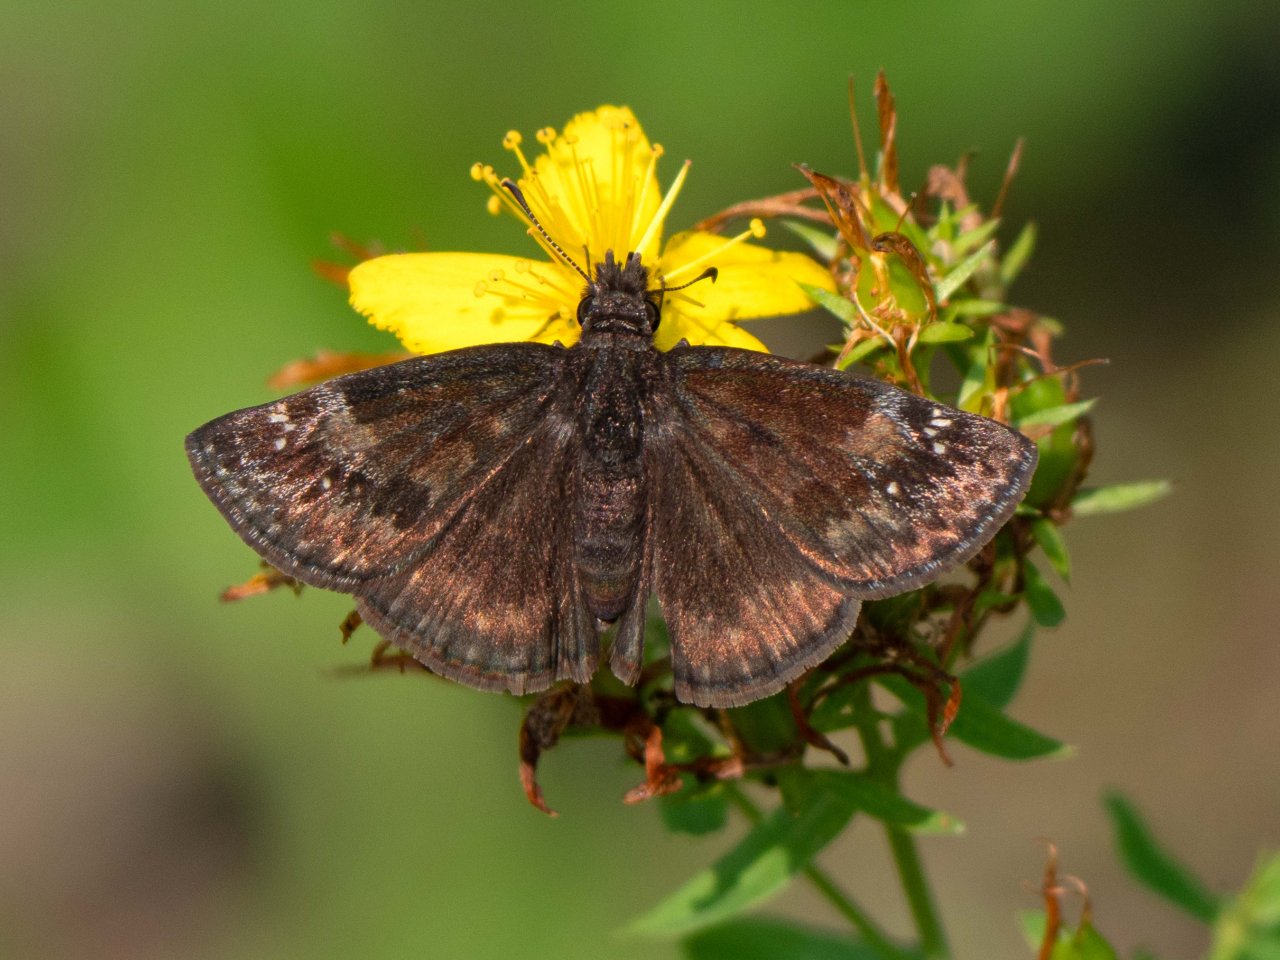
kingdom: Animalia
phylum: Arthropoda
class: Insecta
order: Lepidoptera
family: Hesperiidae
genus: Gesta
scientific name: Gesta
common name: Wild Indigo Duskywing
